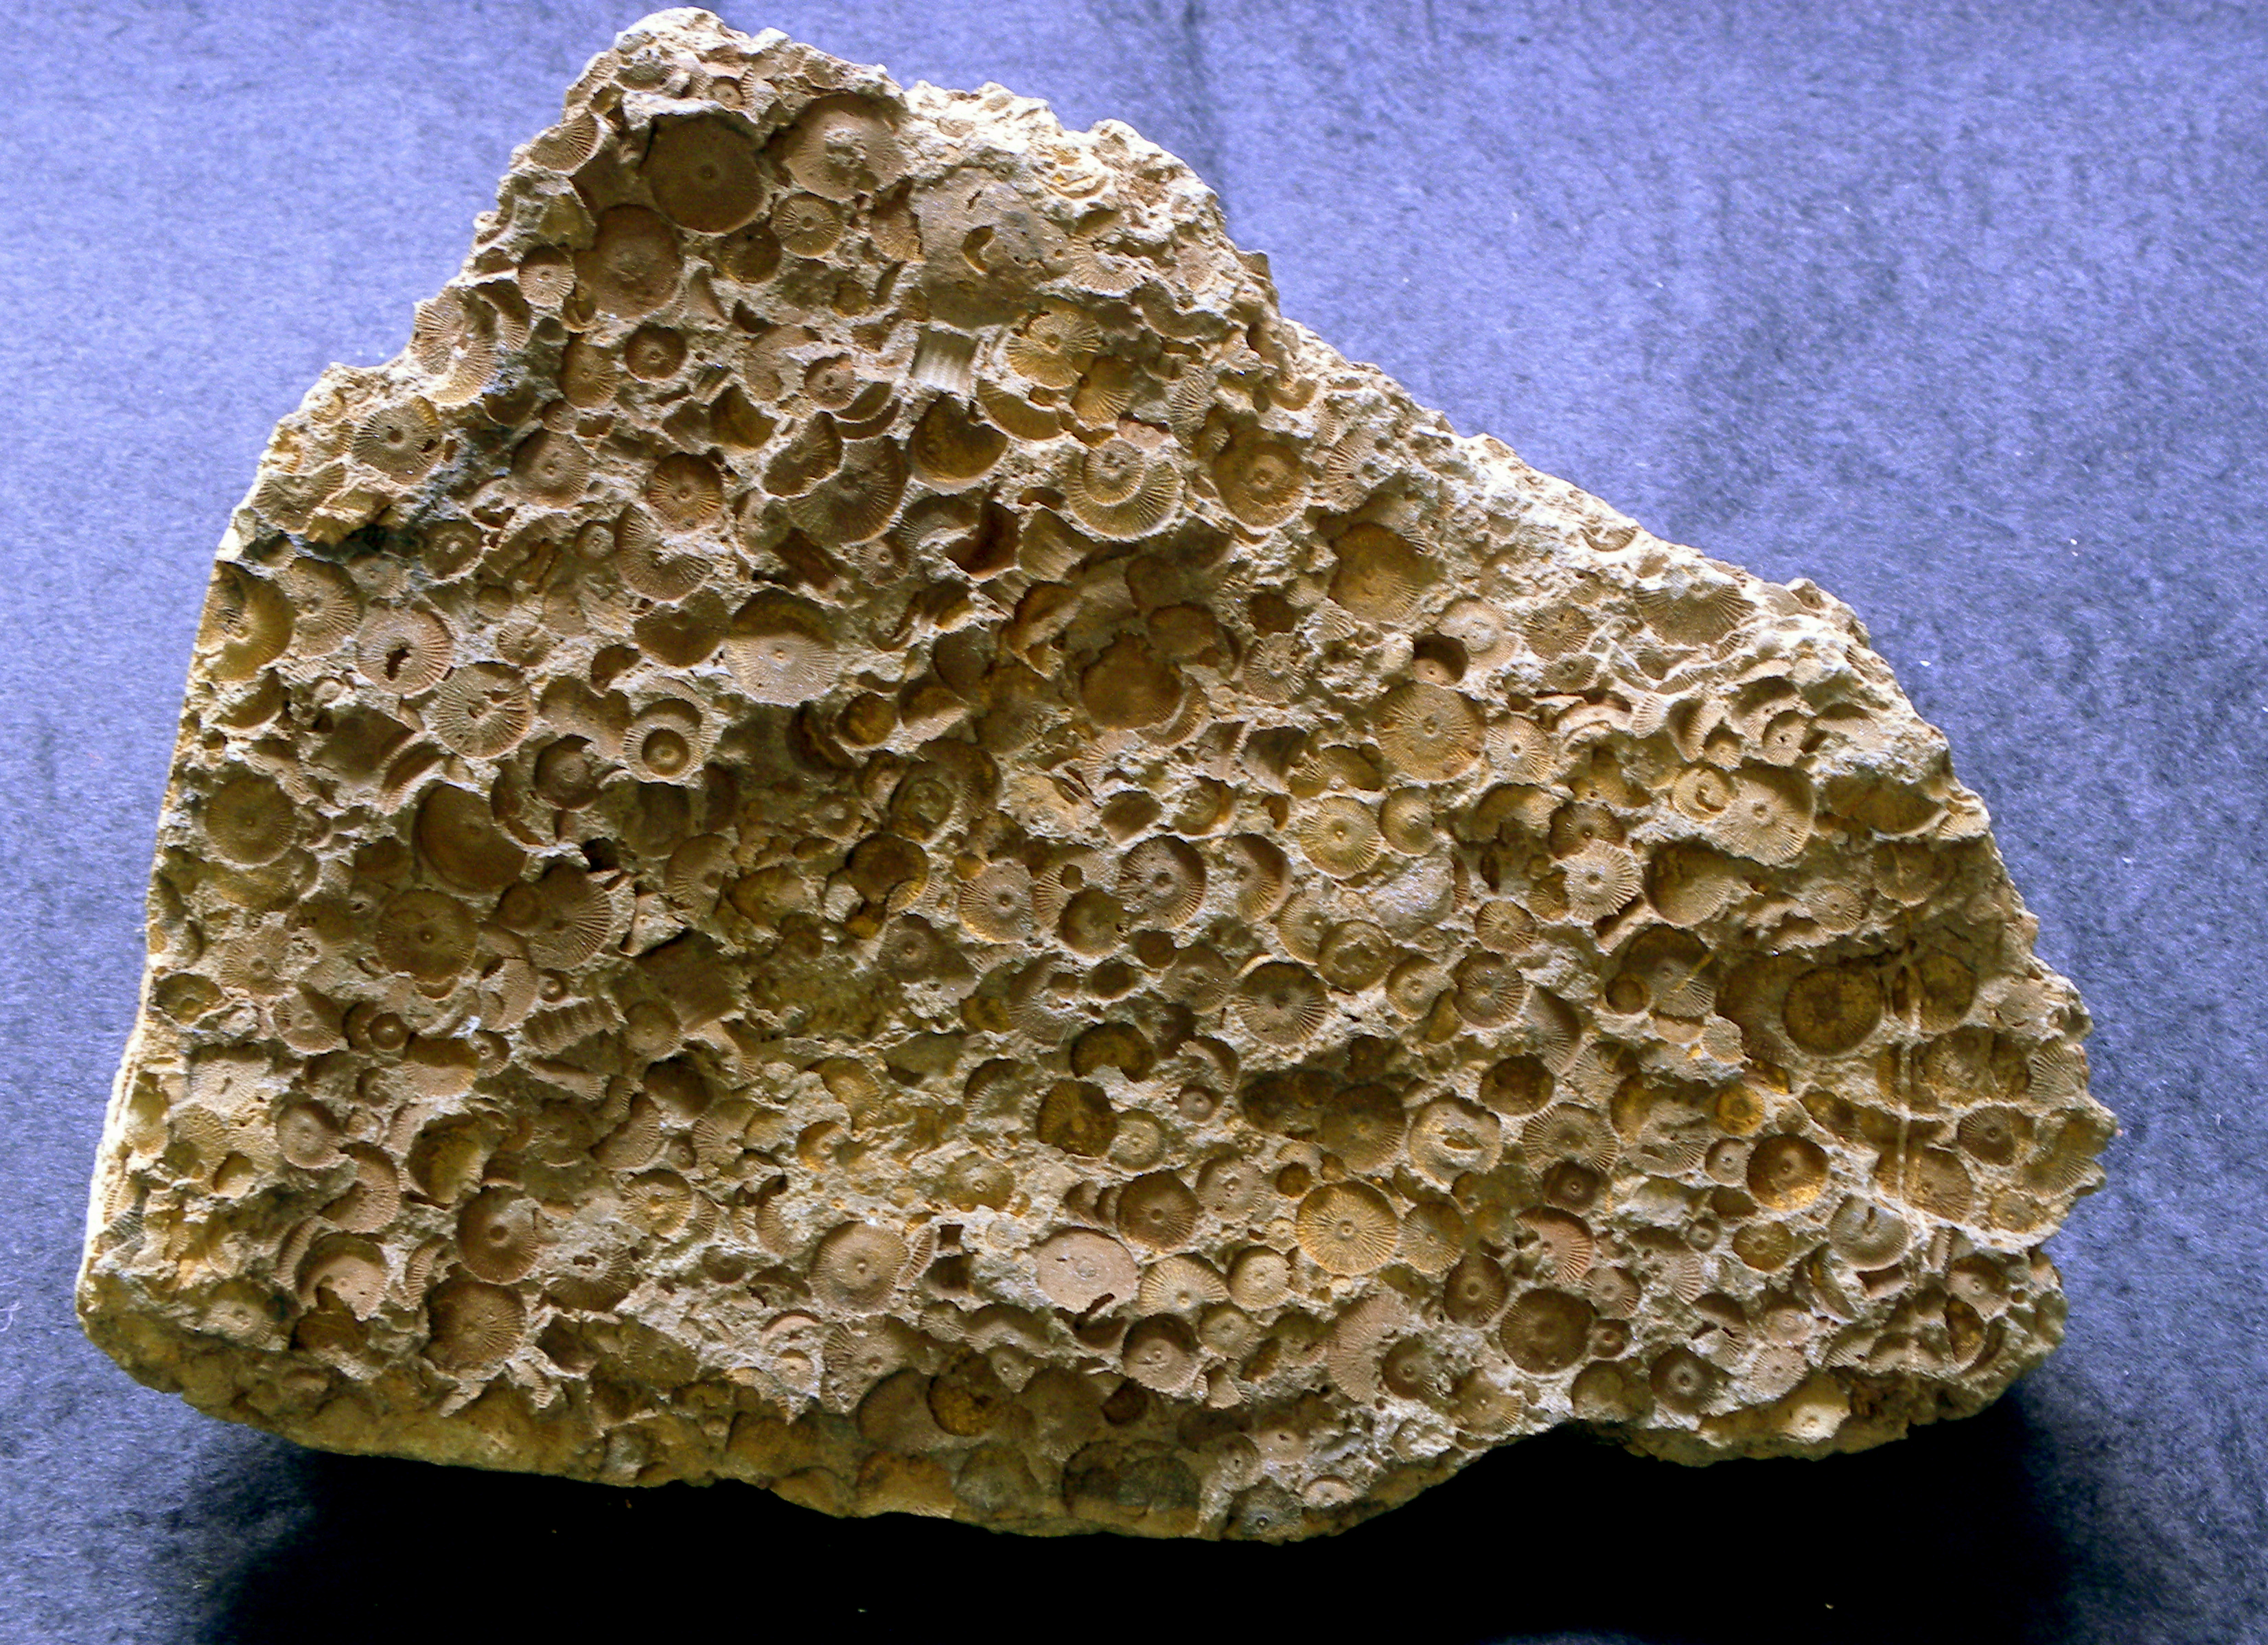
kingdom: Animalia
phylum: Echinodermata
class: Crinoidea
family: Melocrinitidae
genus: Ctenocrinus
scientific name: Ctenocrinus
